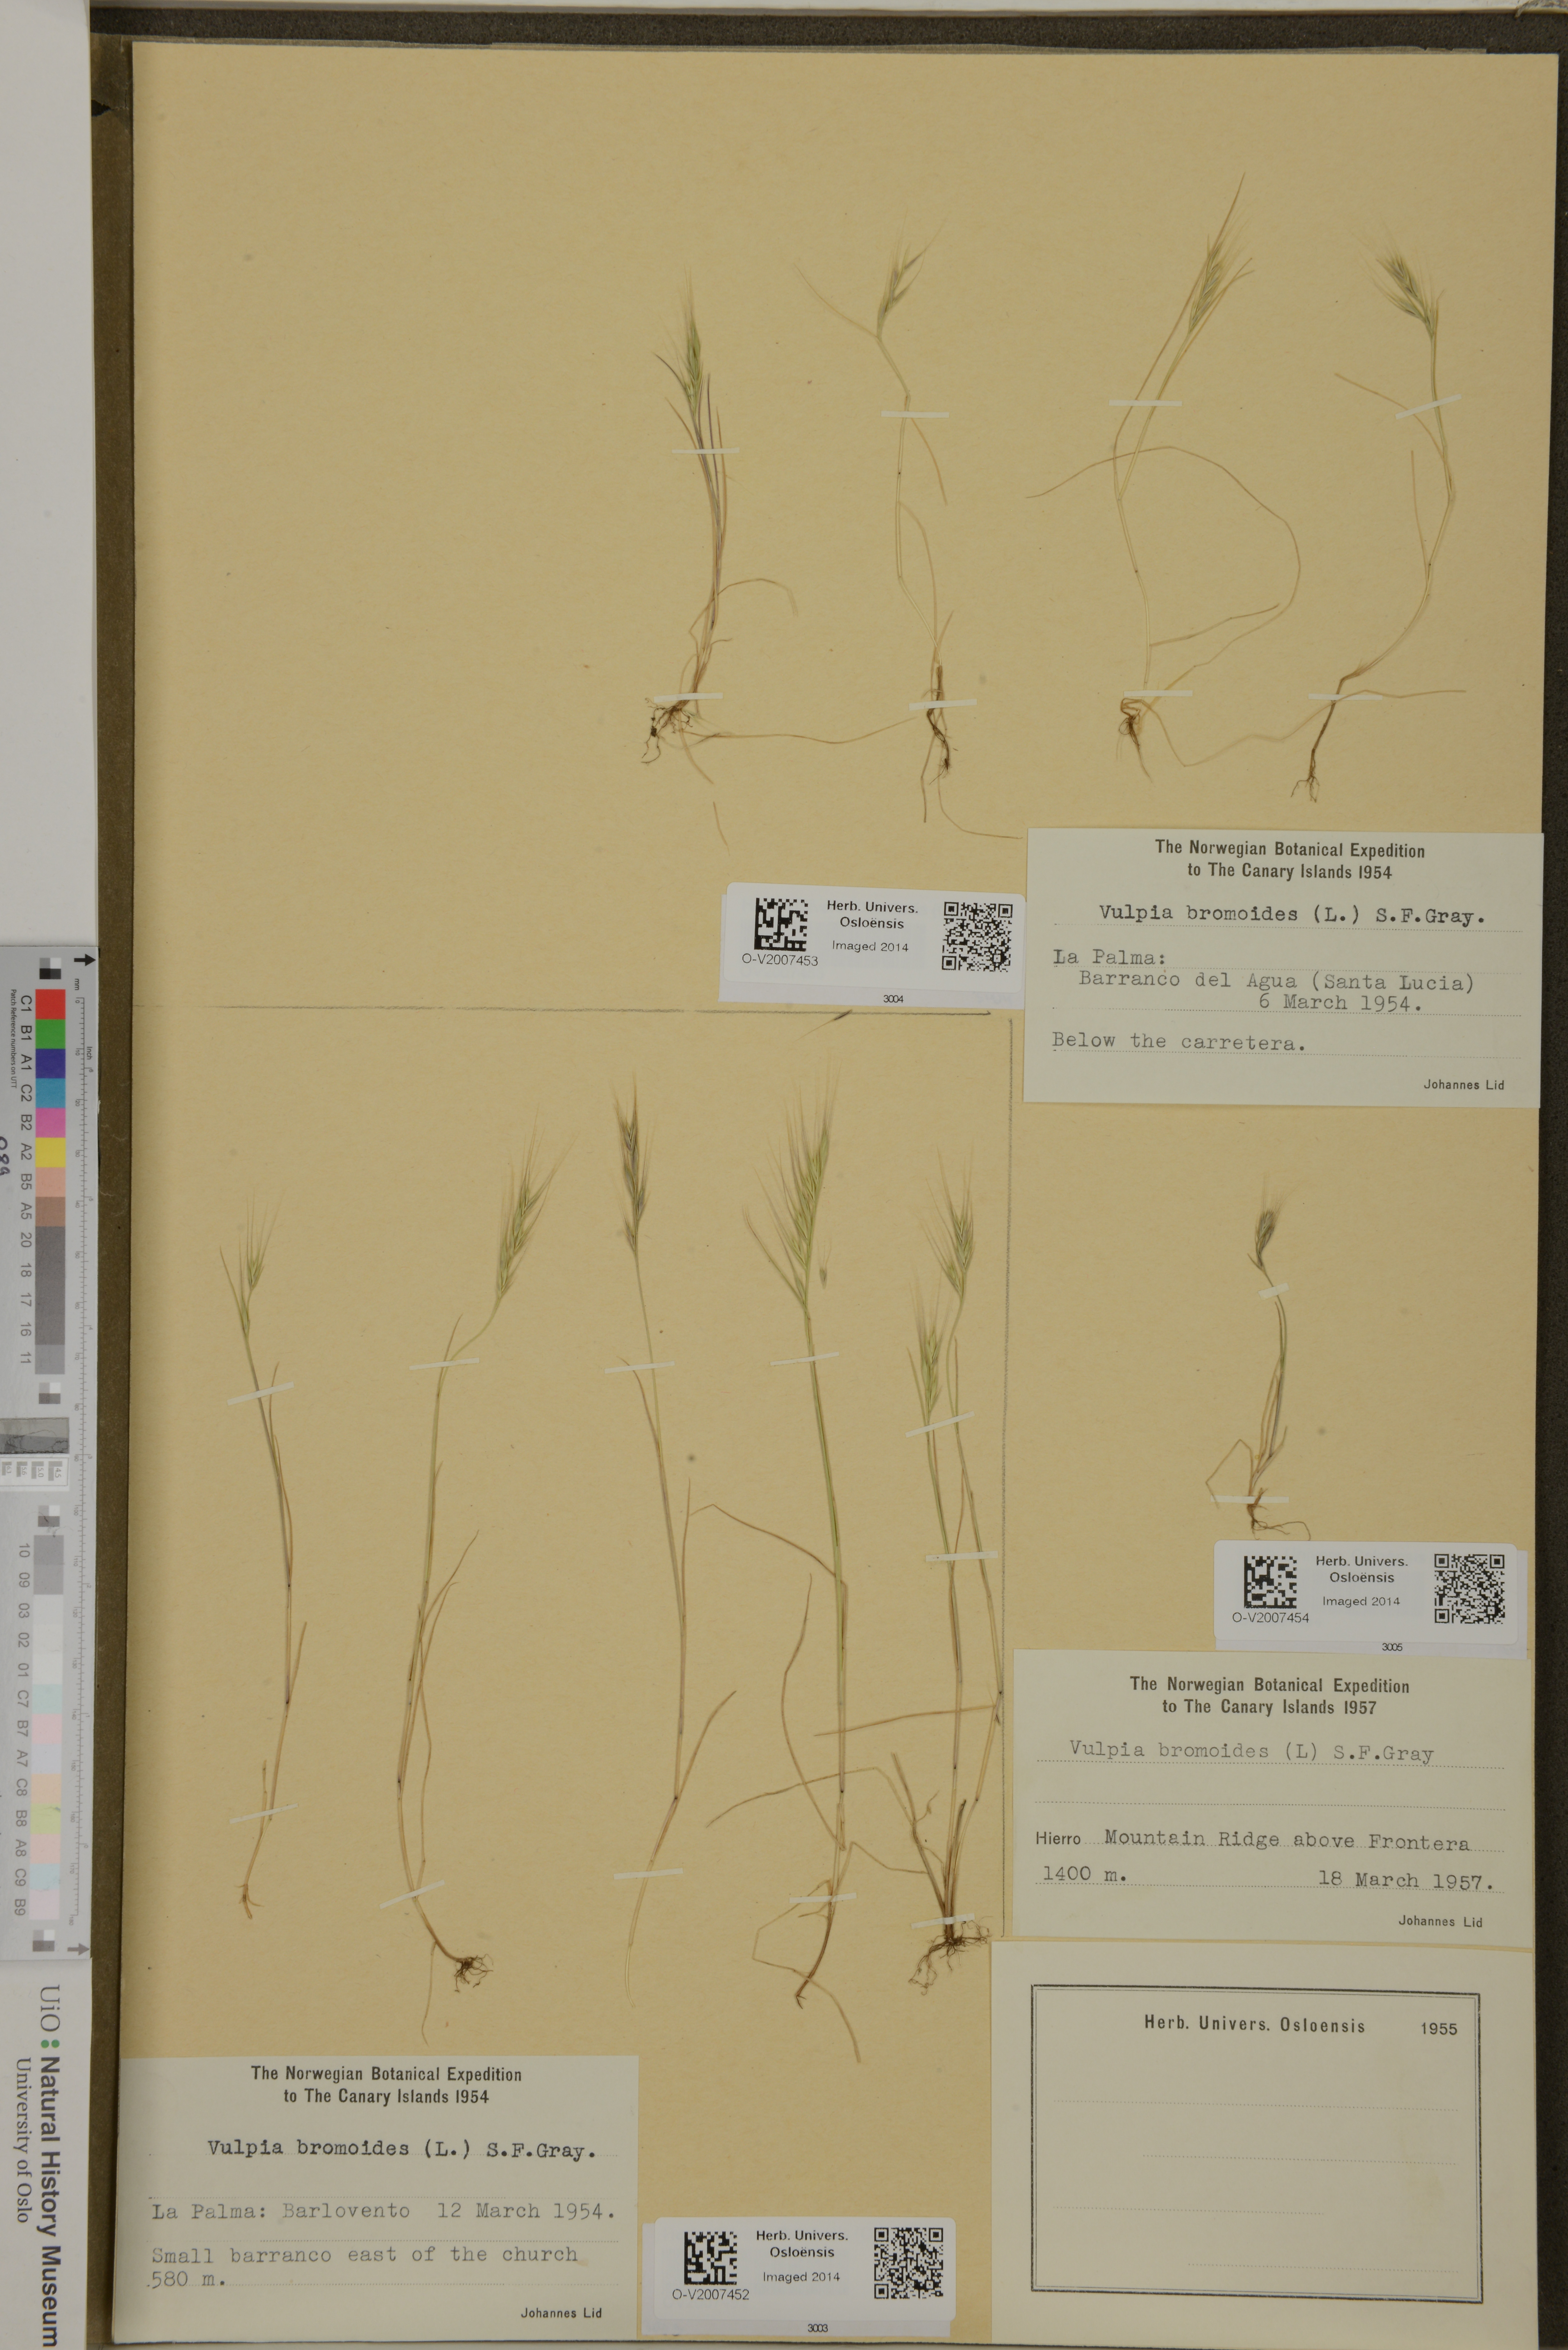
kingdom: Plantae
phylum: Tracheophyta
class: Liliopsida
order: Poales
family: Poaceae
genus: Festuca
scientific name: Festuca bromoides
